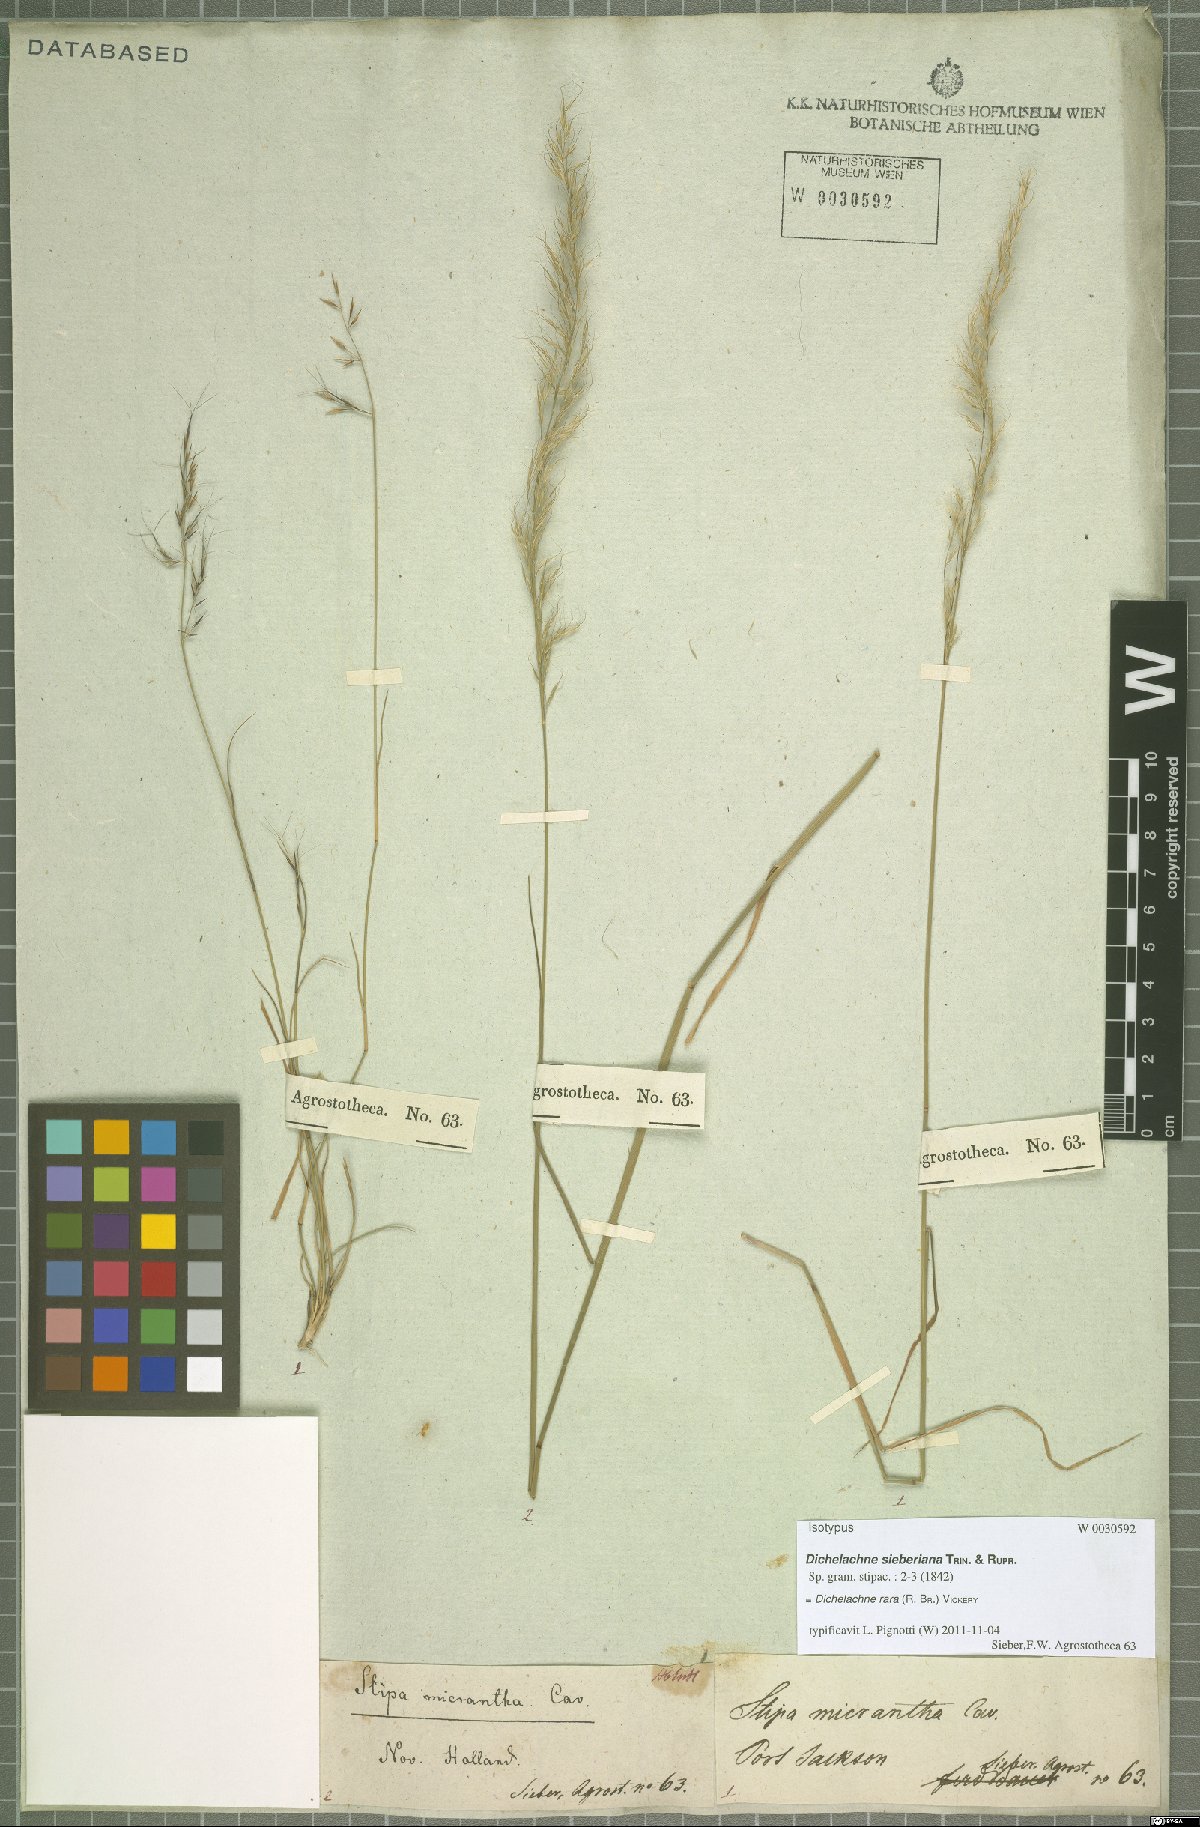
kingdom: Plantae
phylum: Tracheophyta
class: Liliopsida
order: Poales
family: Poaceae
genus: Dichelachne
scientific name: Dichelachne rara
